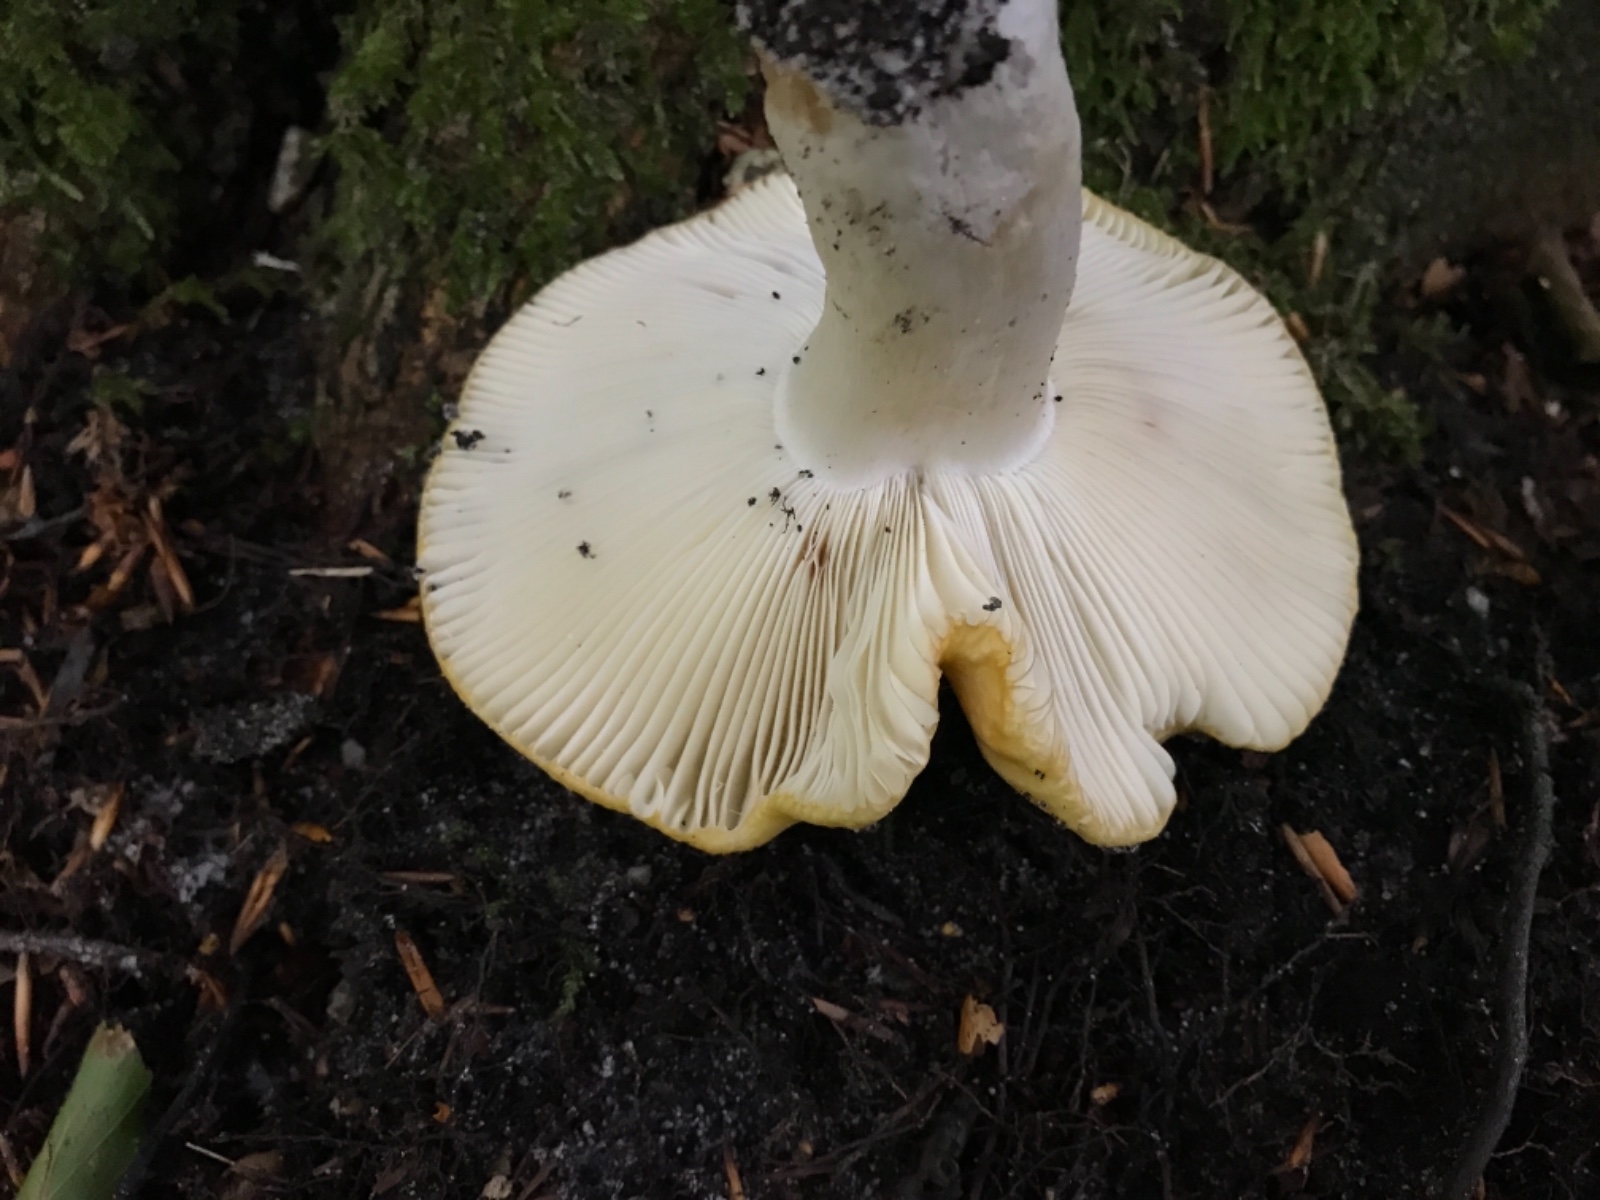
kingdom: Fungi
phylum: Basidiomycota
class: Agaricomycetes
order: Russulales
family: Russulaceae
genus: Russula
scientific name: Russula ochroleuca
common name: okkergul skørhat
